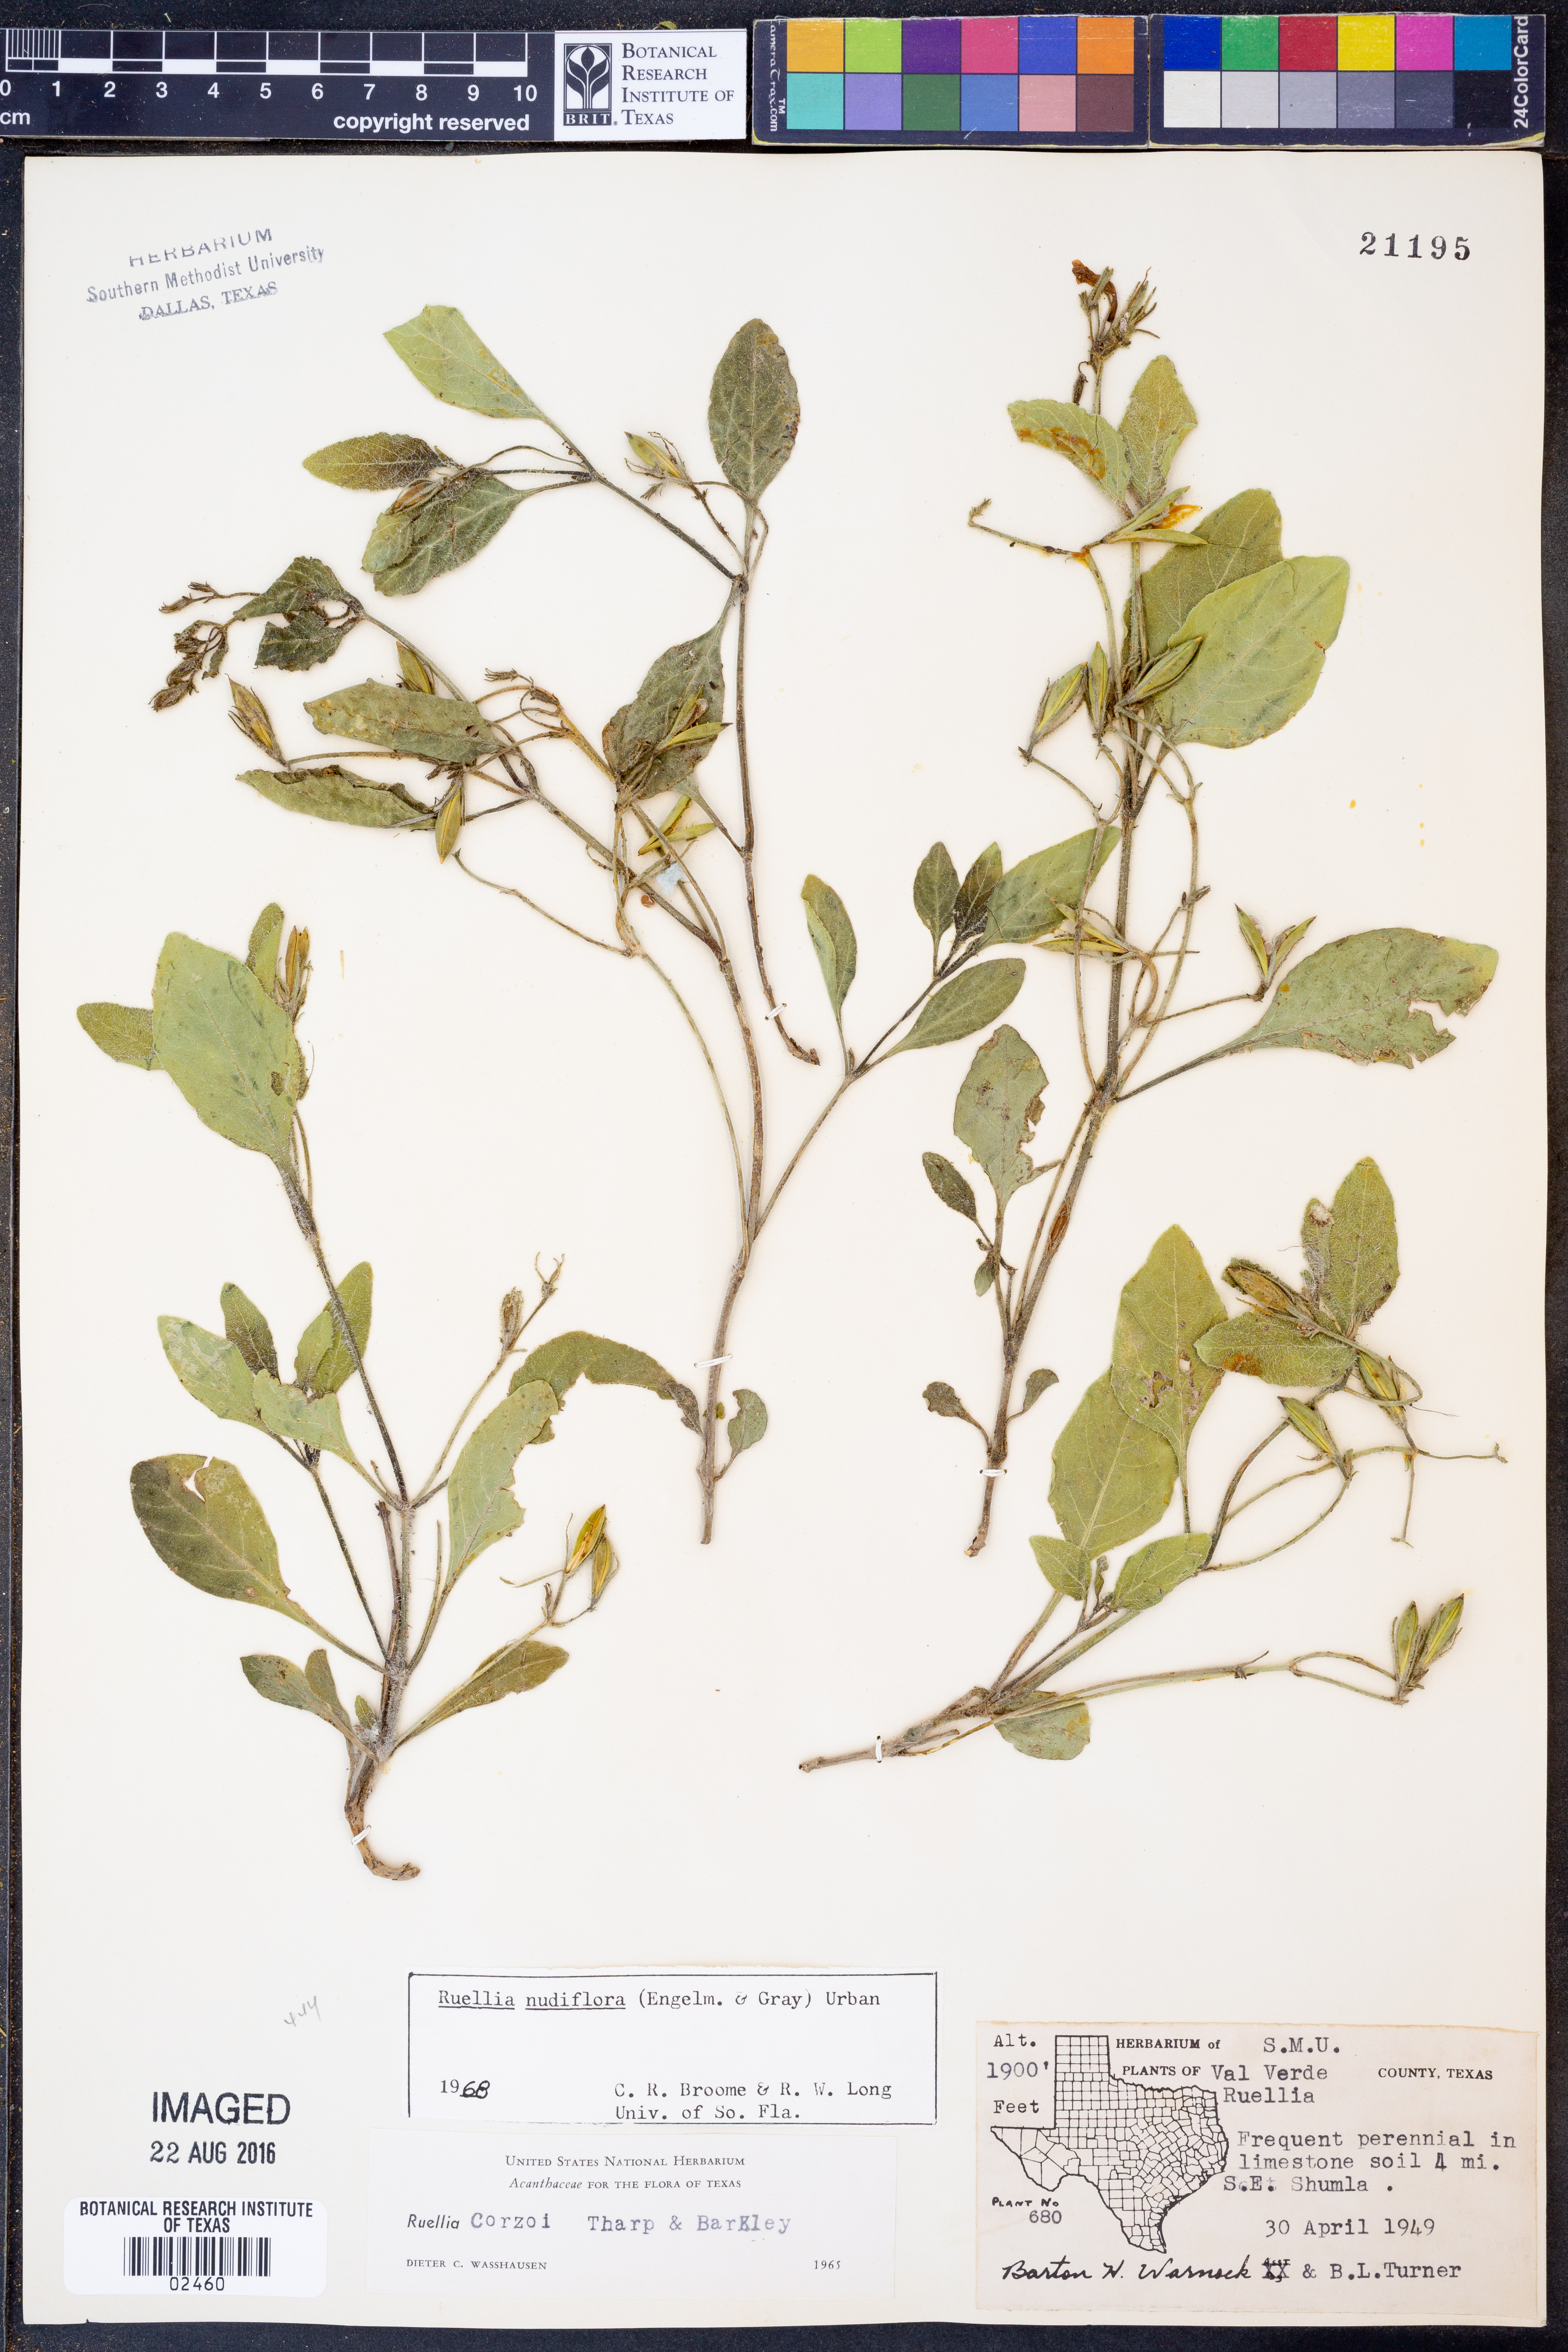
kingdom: Plantae
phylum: Tracheophyta
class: Magnoliopsida
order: Lamiales
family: Acanthaceae
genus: Ruellia
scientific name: Ruellia ciliatiflora
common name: Hairyflower wild petunia
